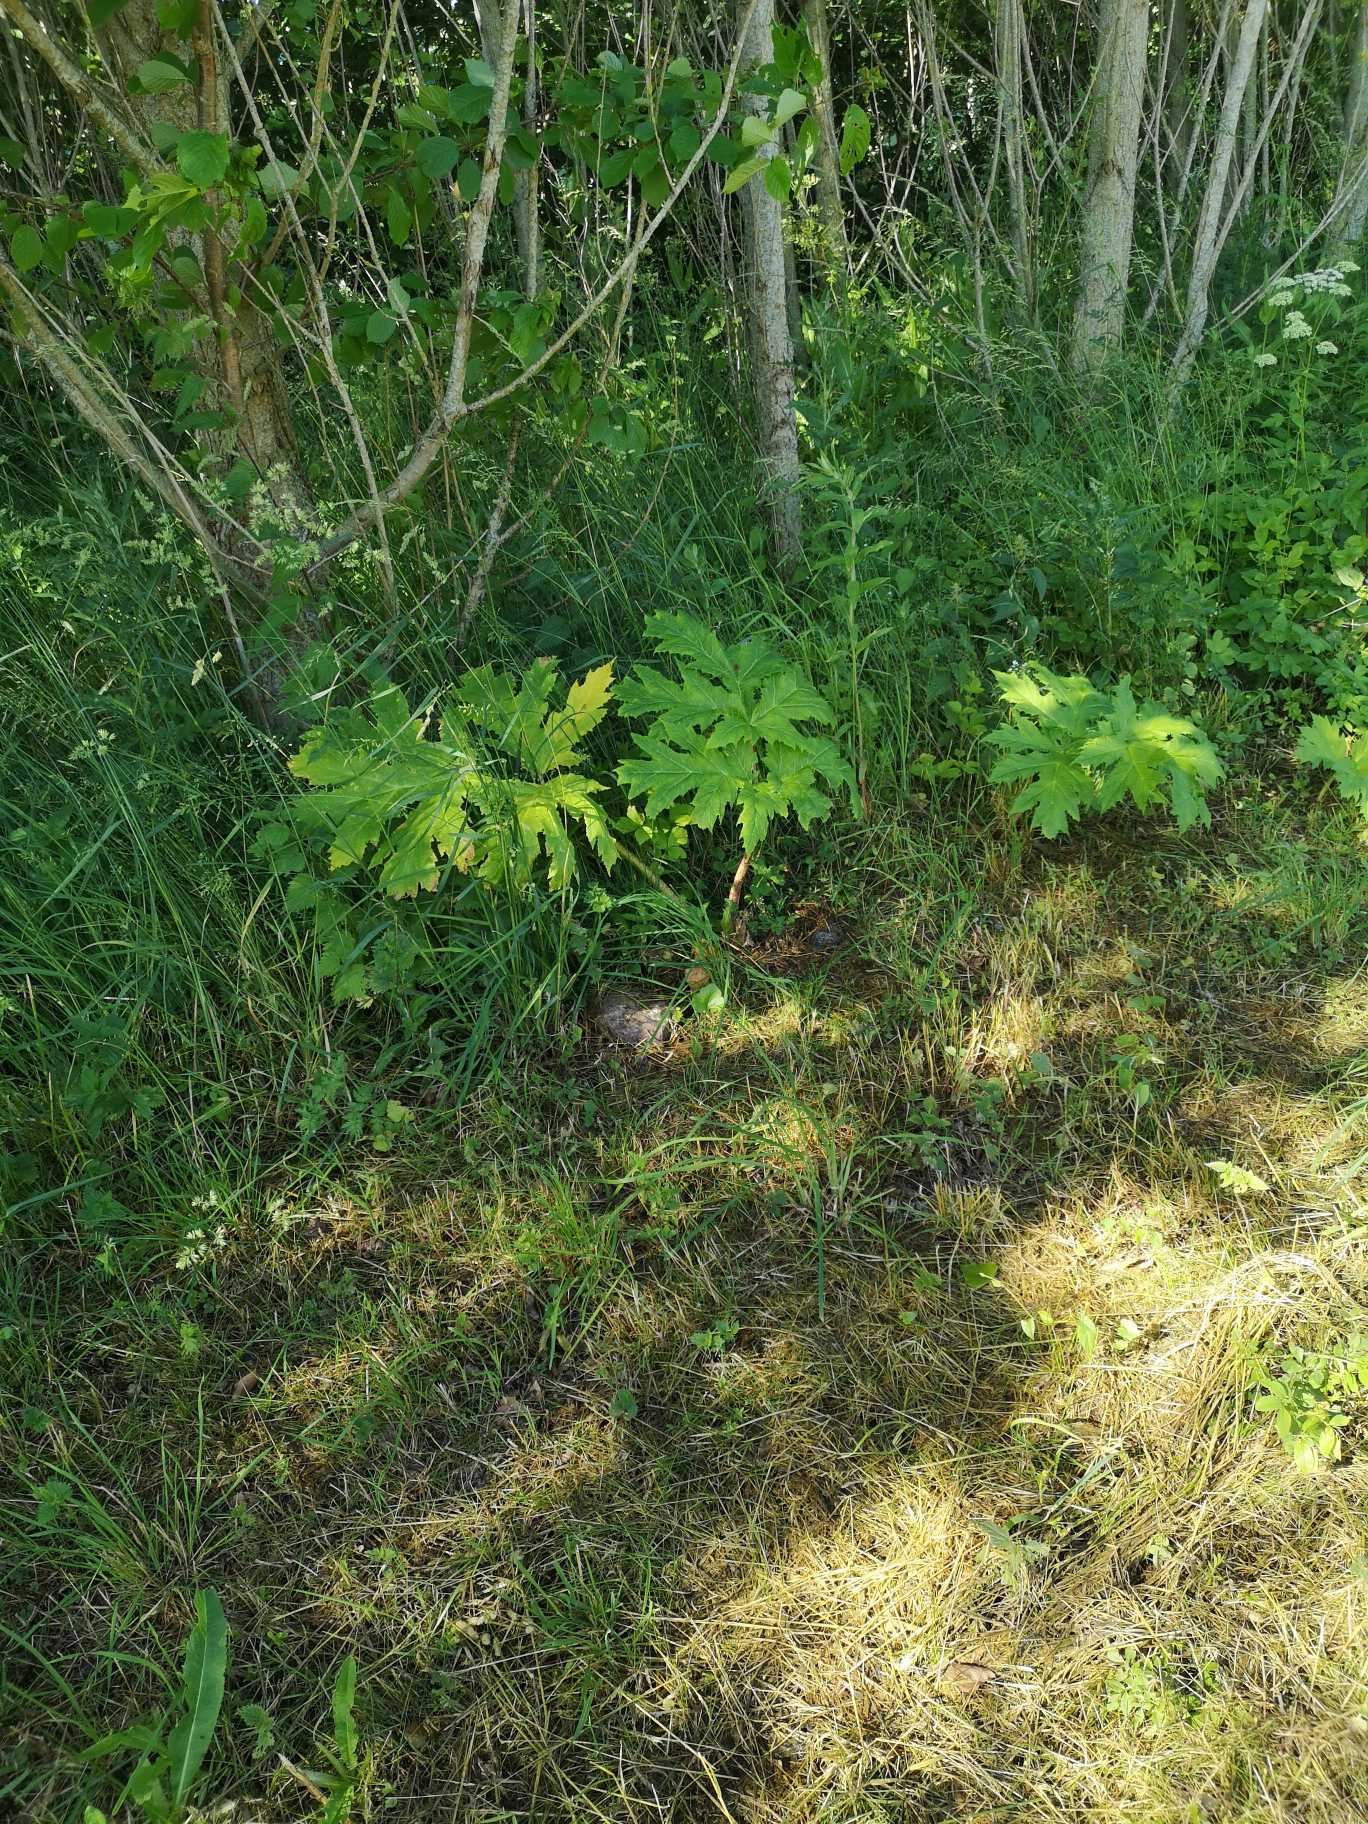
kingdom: Plantae
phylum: Tracheophyta
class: Magnoliopsida
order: Apiales
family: Apiaceae
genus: Heracleum
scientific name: Heracleum mantegazzianum
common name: Kæmpe-bjørneklo
